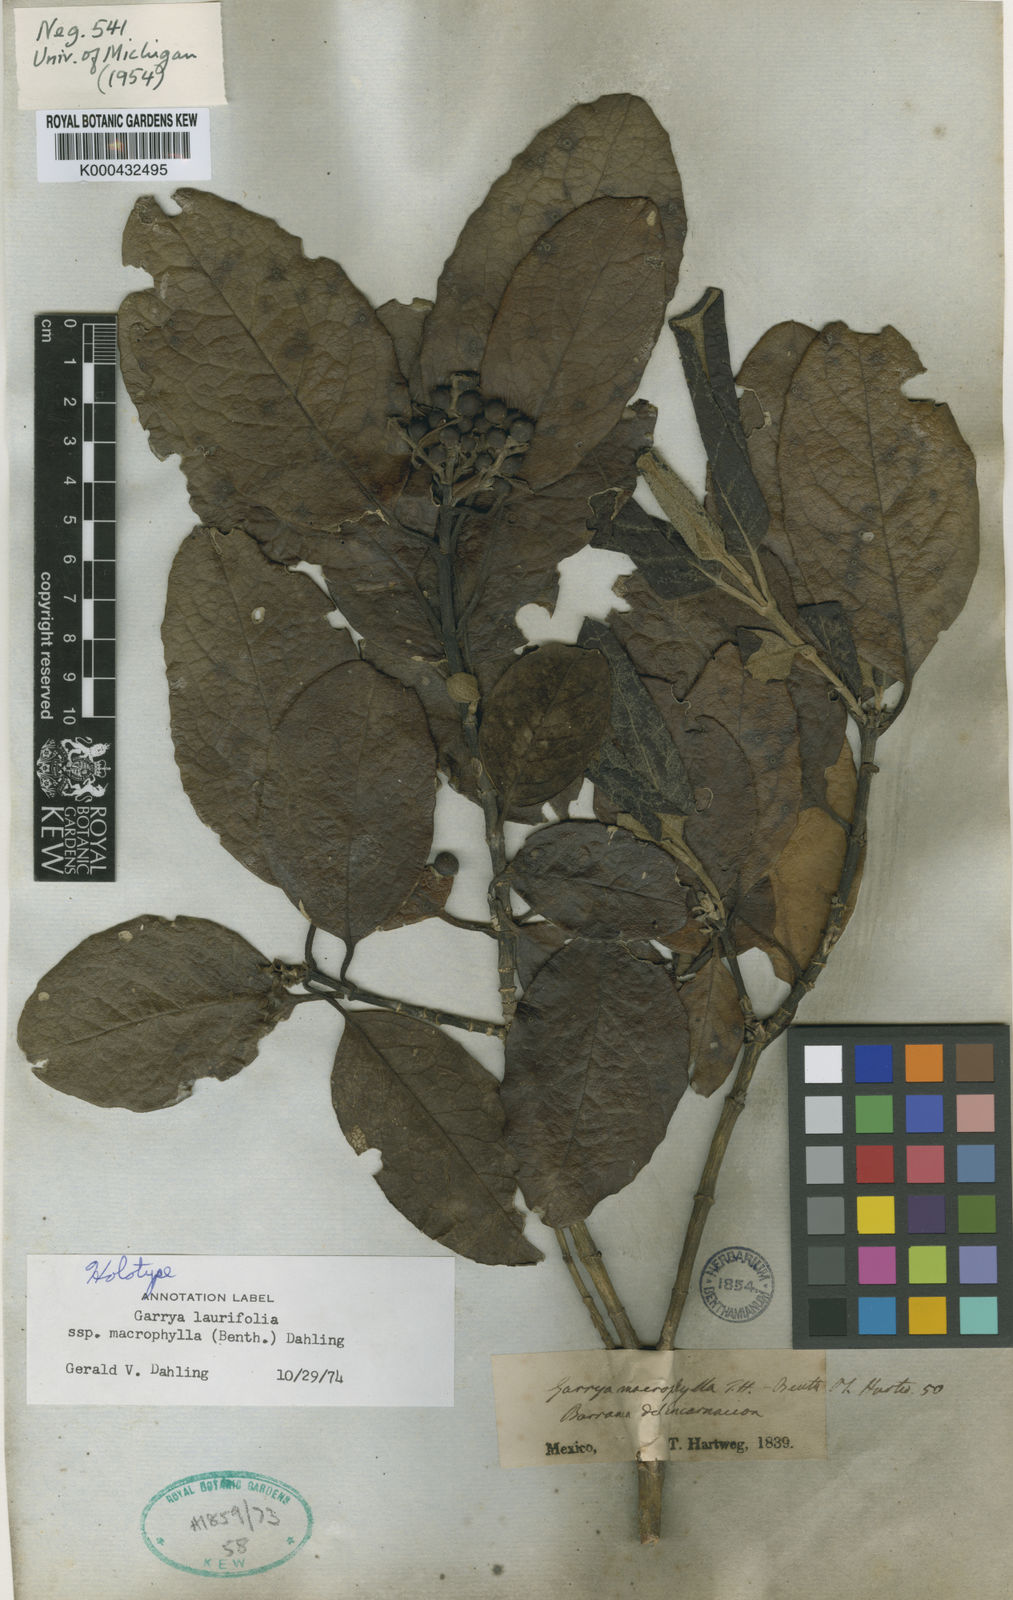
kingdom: Plantae
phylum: Tracheophyta
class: Magnoliopsida
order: Garryales
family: Garryaceae
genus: Garrya
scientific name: Garrya laurifolia
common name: Cuachichic
